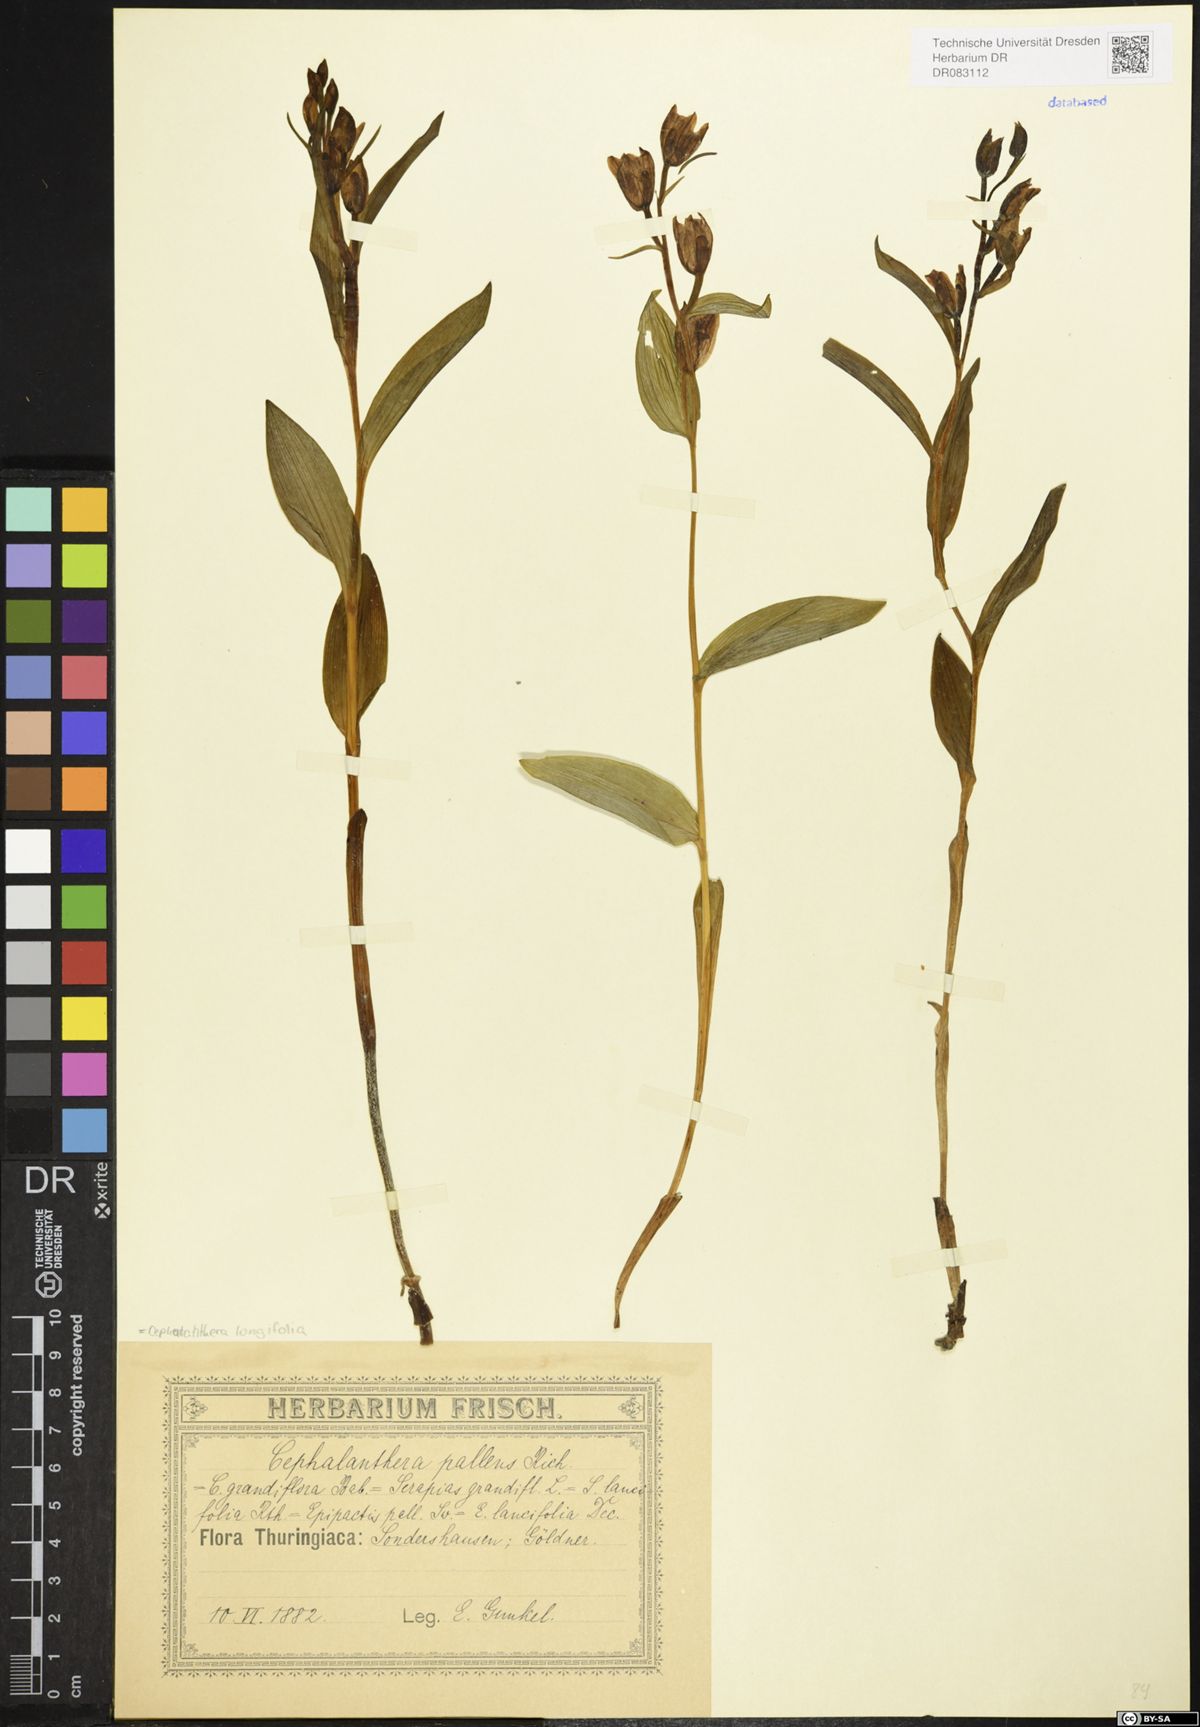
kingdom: Plantae
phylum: Tracheophyta
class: Liliopsida
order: Asparagales
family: Orchidaceae
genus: Cephalanthera
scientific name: Cephalanthera longifolia
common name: Narrow-leaved helleborine
